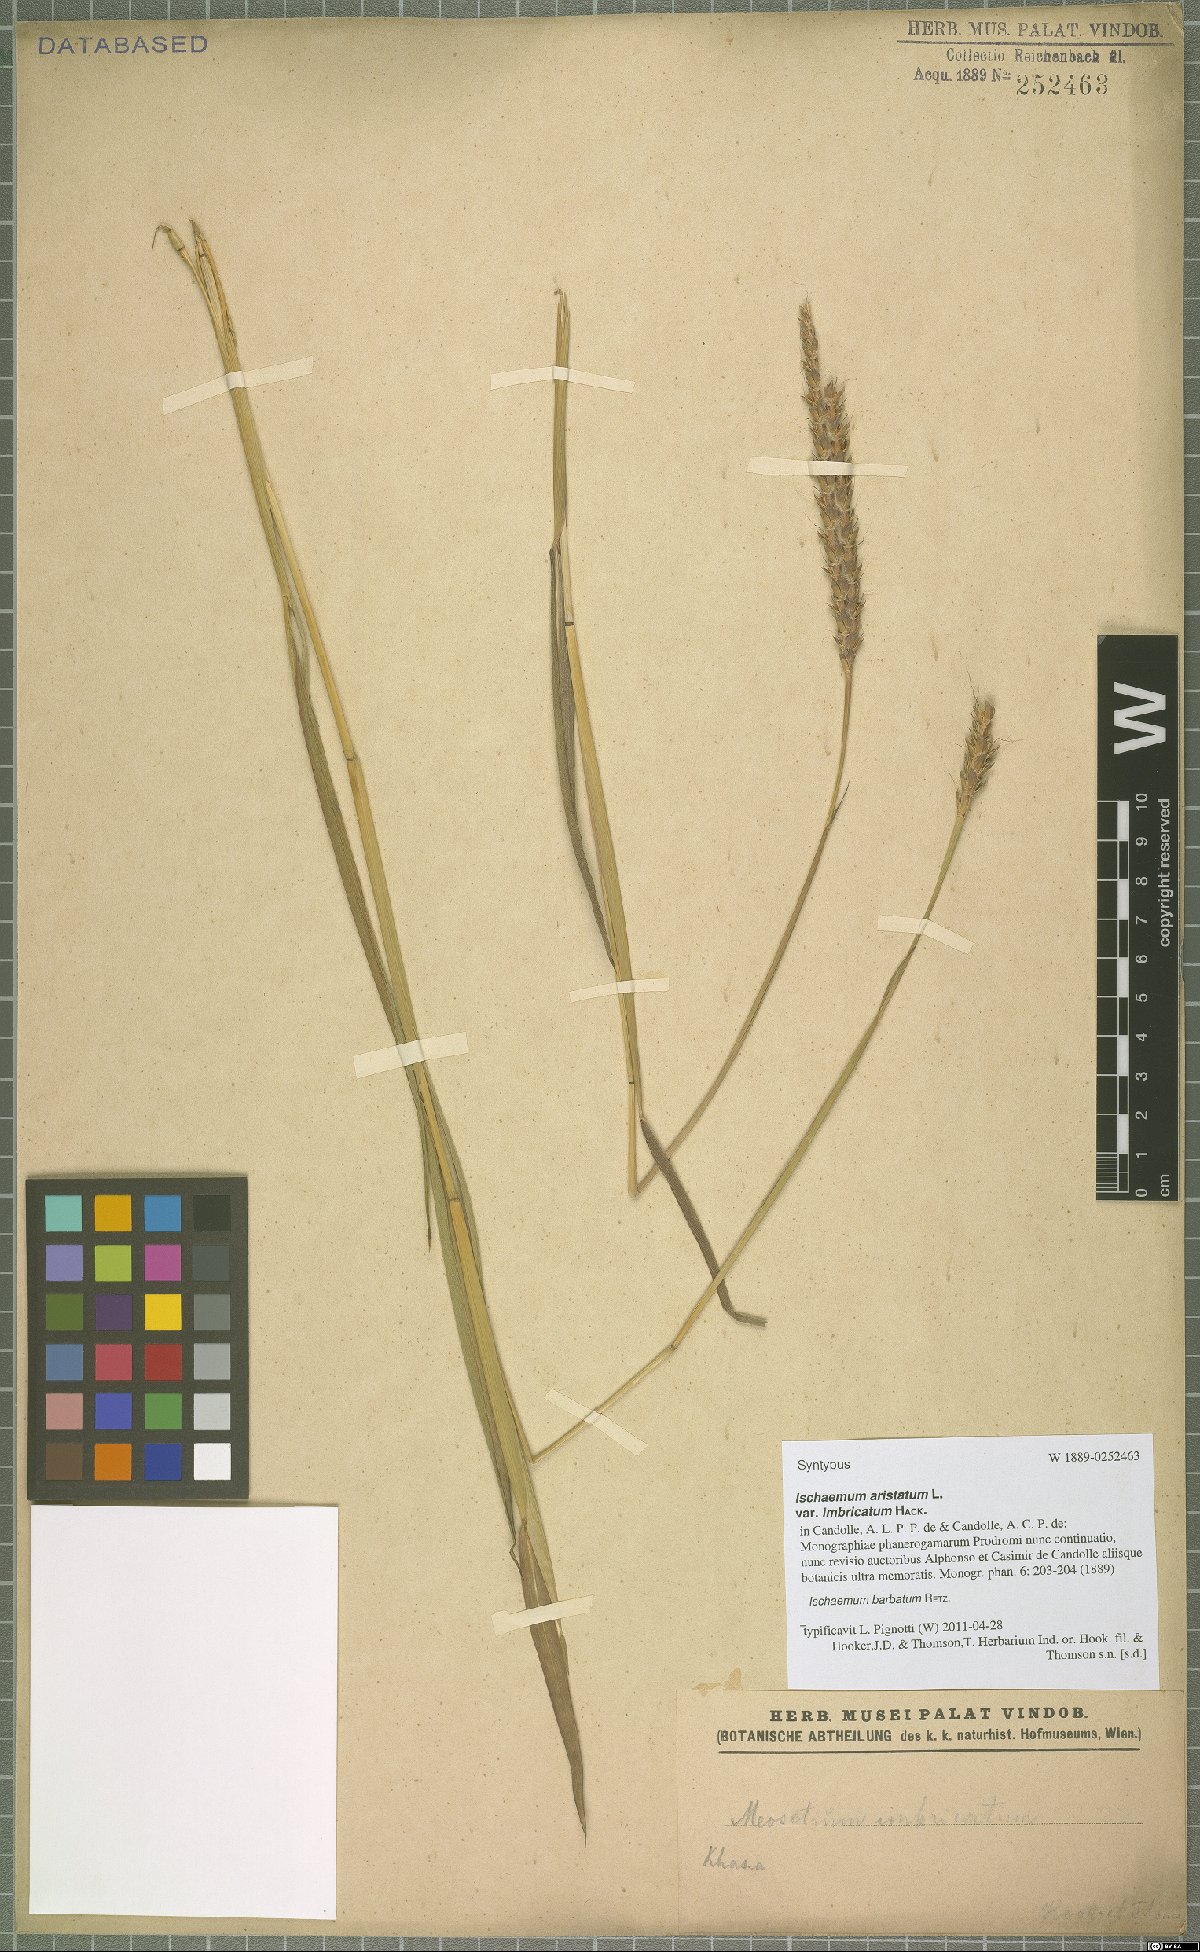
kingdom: Plantae
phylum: Tracheophyta
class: Liliopsida
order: Poales
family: Poaceae
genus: Ischaemum
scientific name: Ischaemum barbatum
